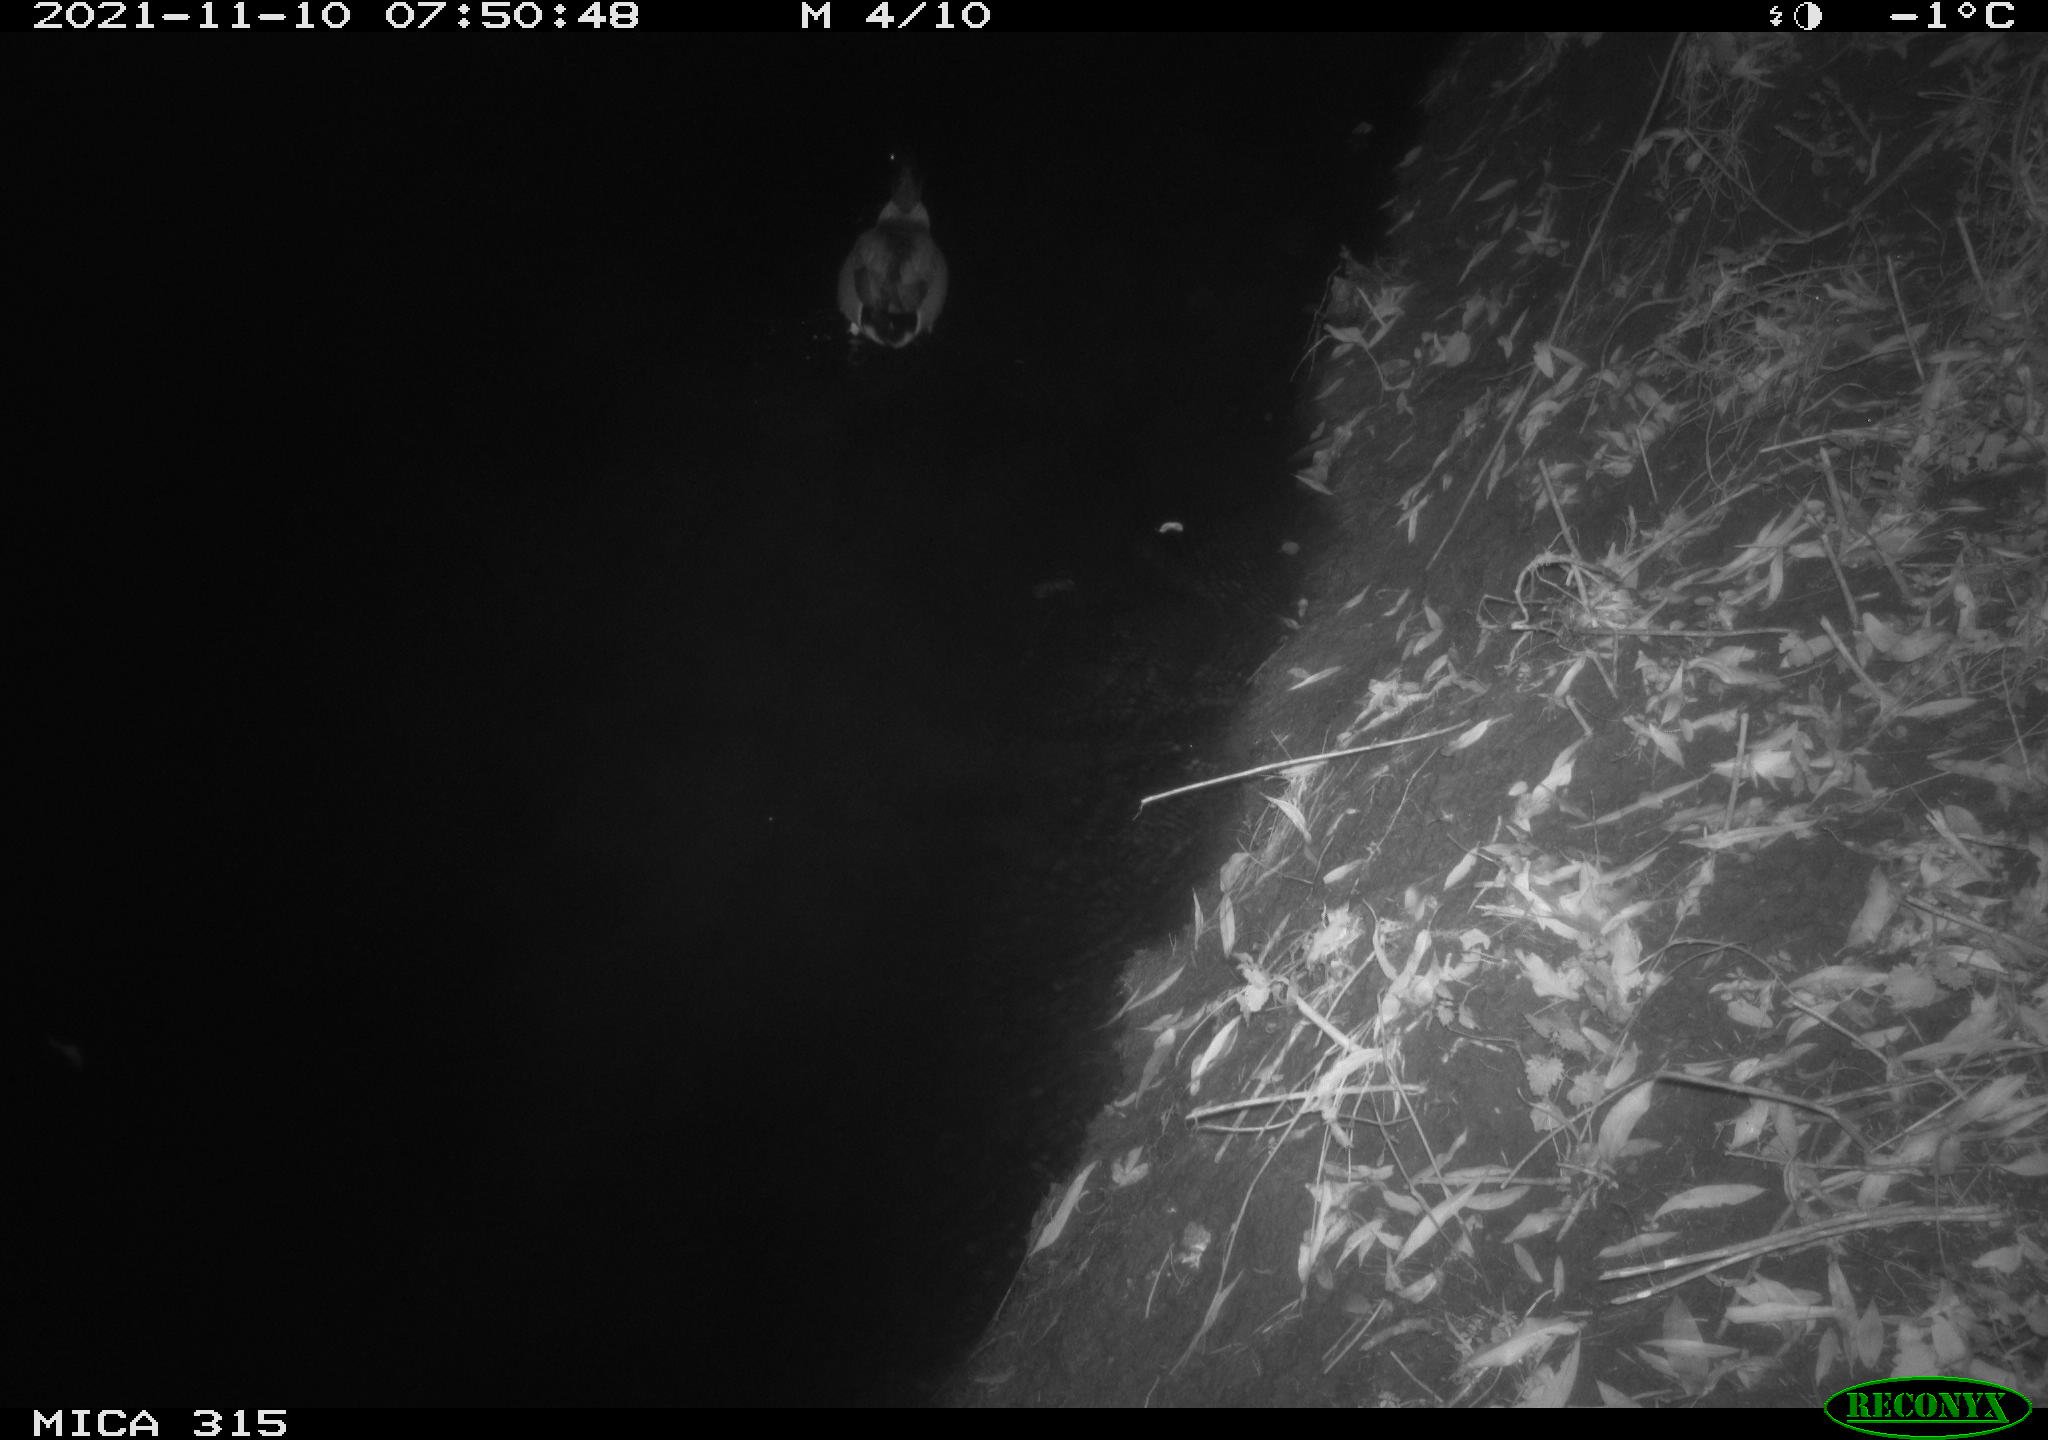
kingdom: Animalia
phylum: Chordata
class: Aves
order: Anseriformes
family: Anatidae
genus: Anas
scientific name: Anas platyrhynchos
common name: Mallard
